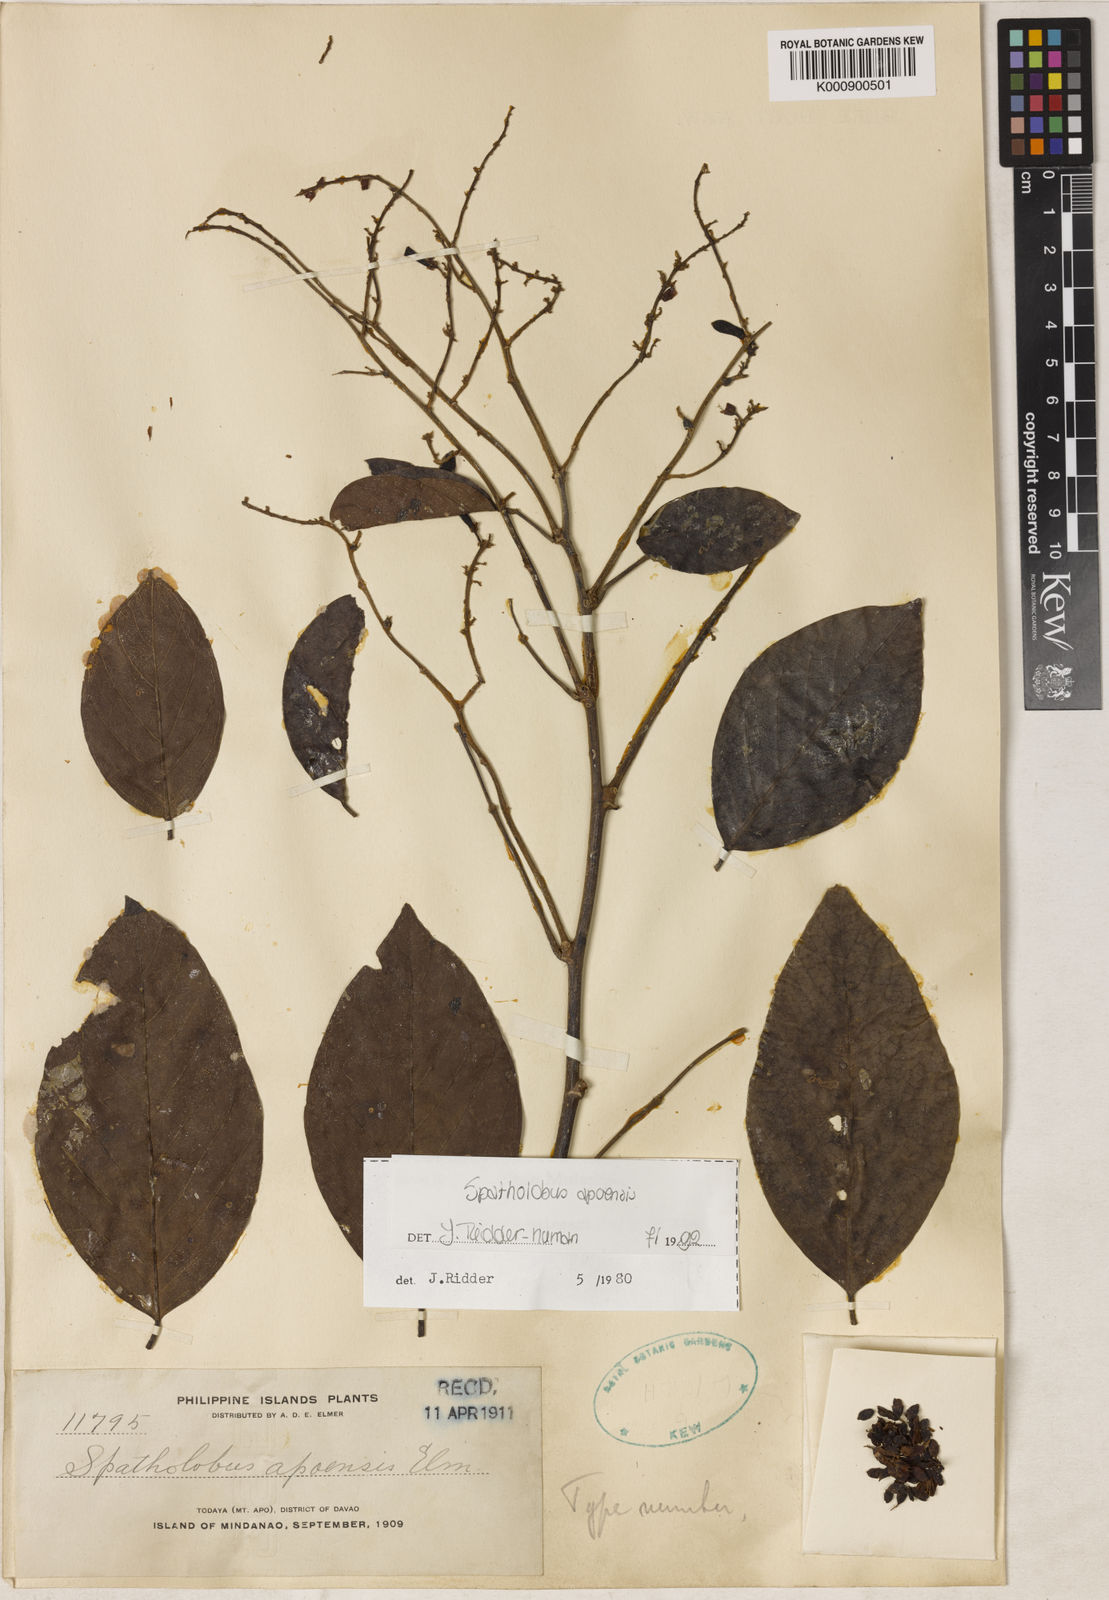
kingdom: Plantae
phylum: Tracheophyta
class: Magnoliopsida
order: Fabales
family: Fabaceae
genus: Spatholobus
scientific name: Spatholobus apoensis
